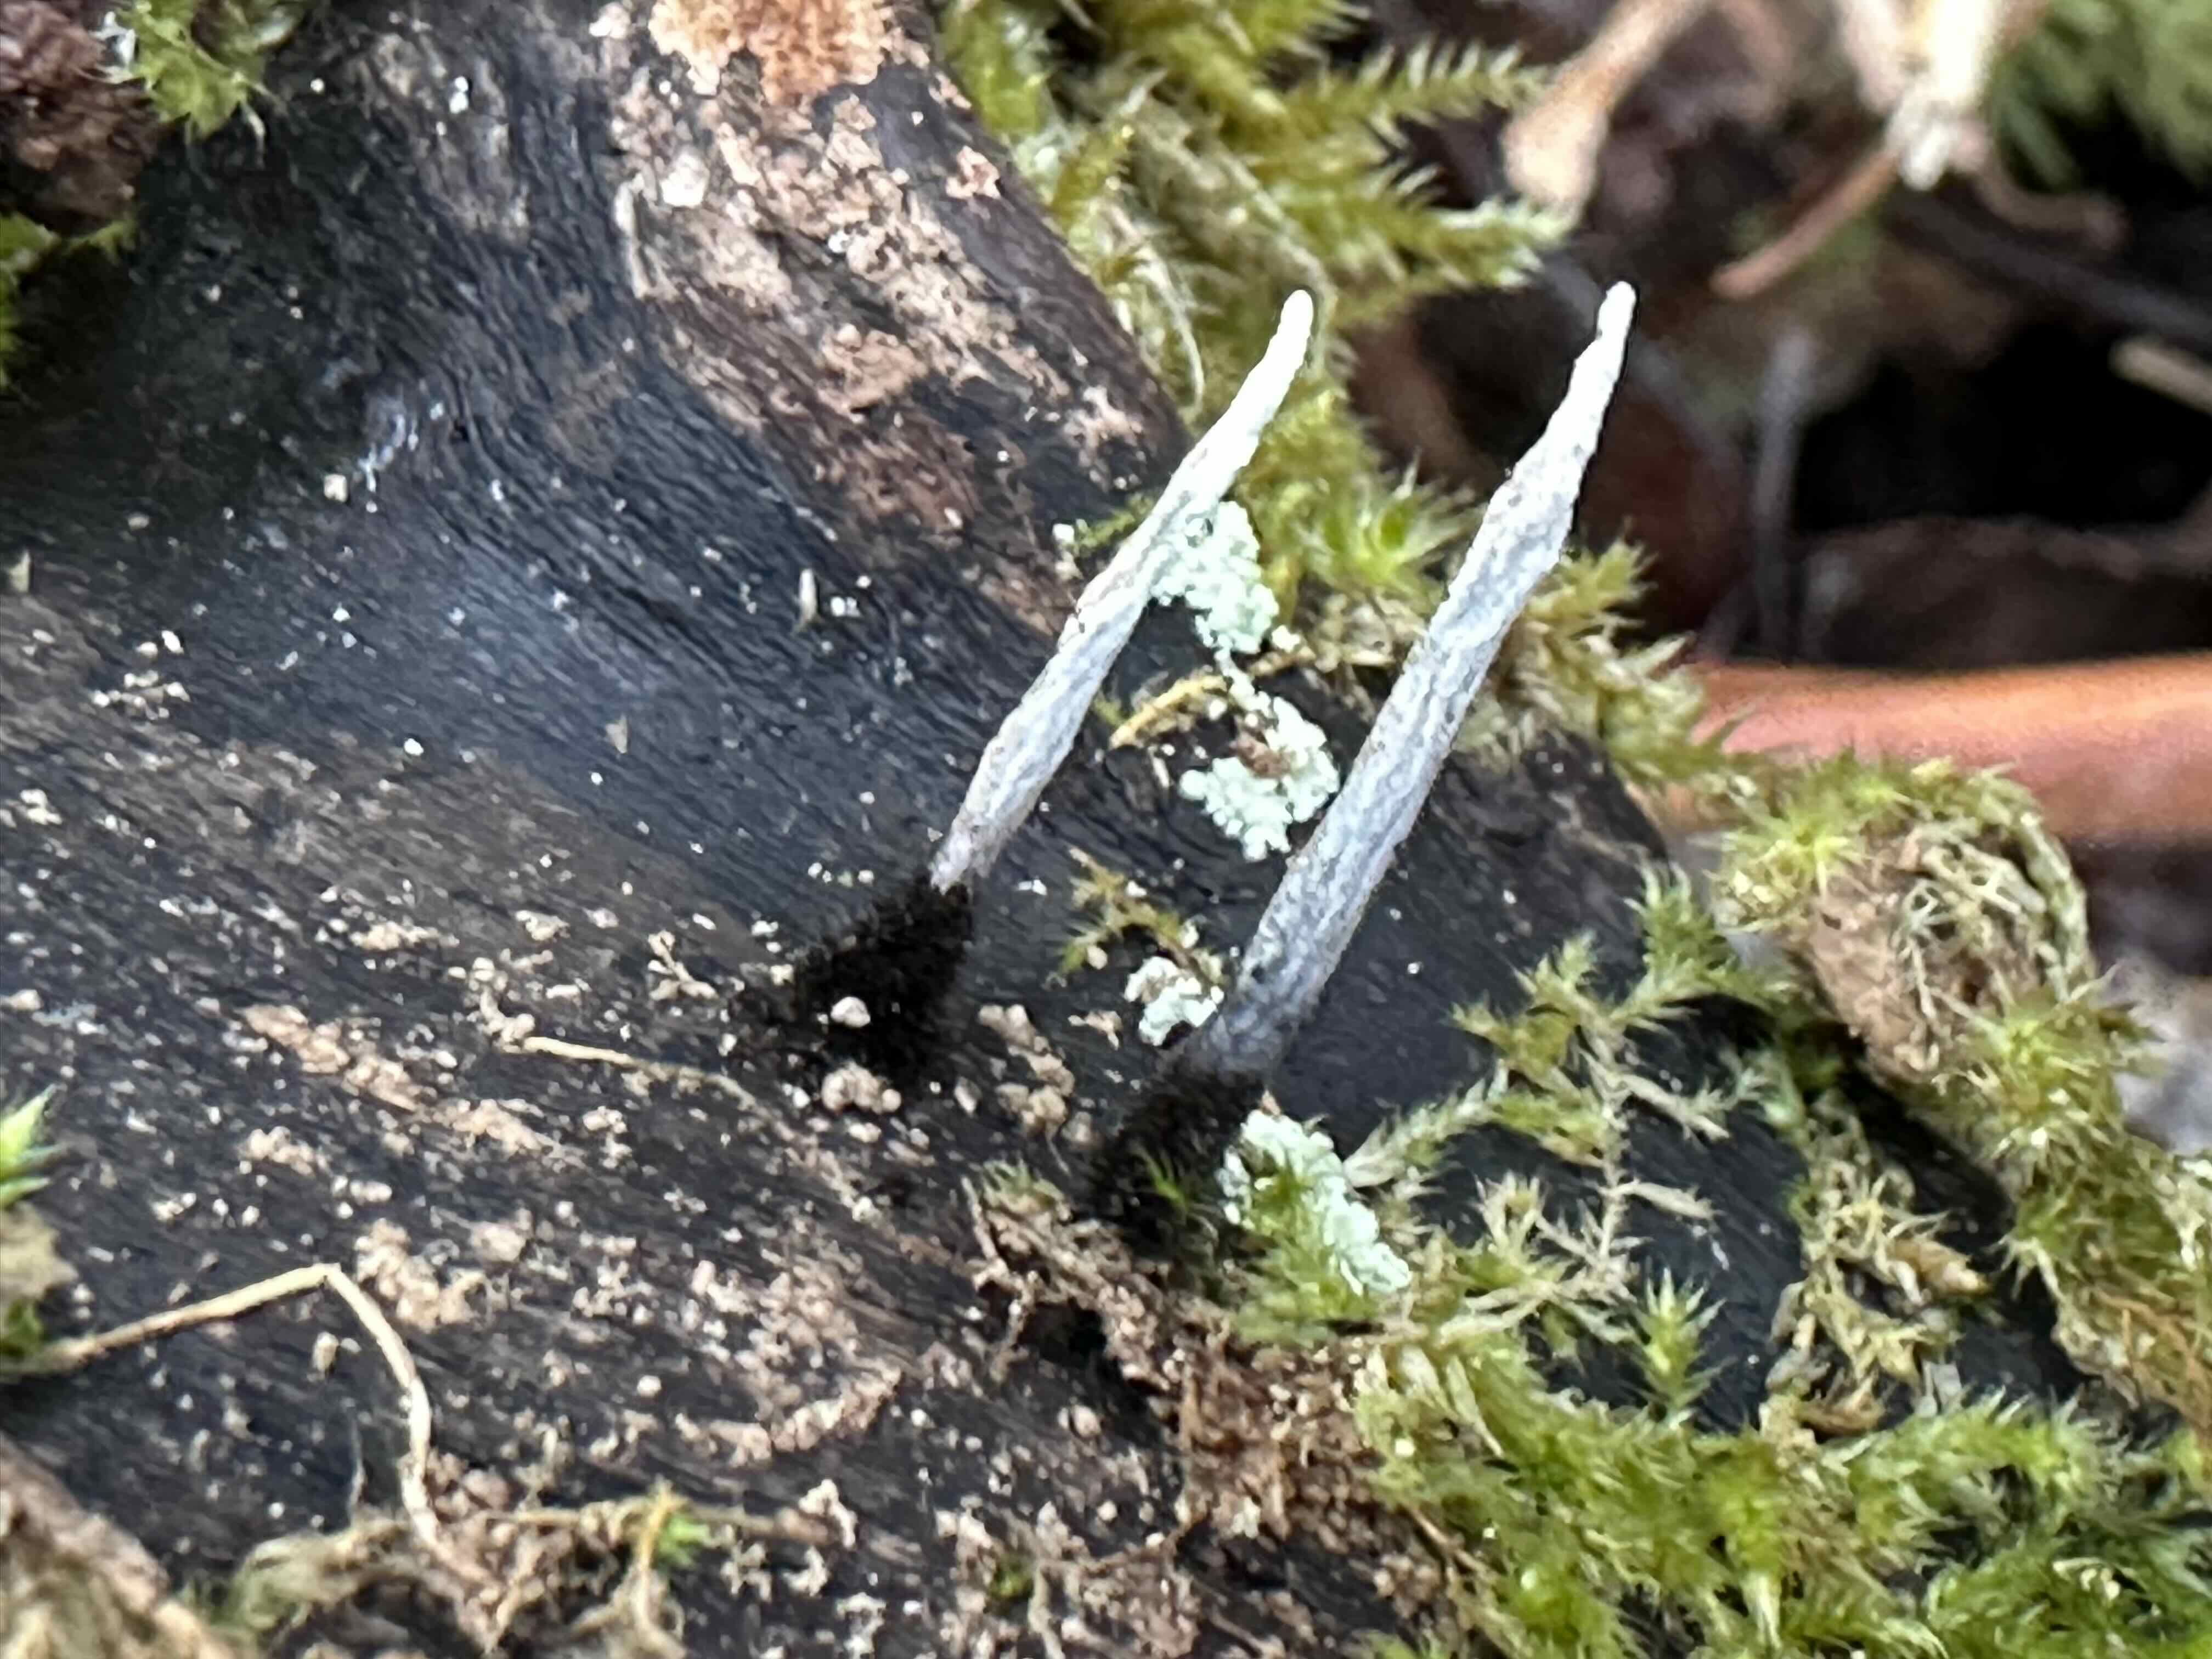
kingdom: Fungi
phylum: Ascomycota
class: Sordariomycetes
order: Xylariales
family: Xylariaceae
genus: Xylaria
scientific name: Xylaria hypoxylon
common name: grenet stødsvamp
